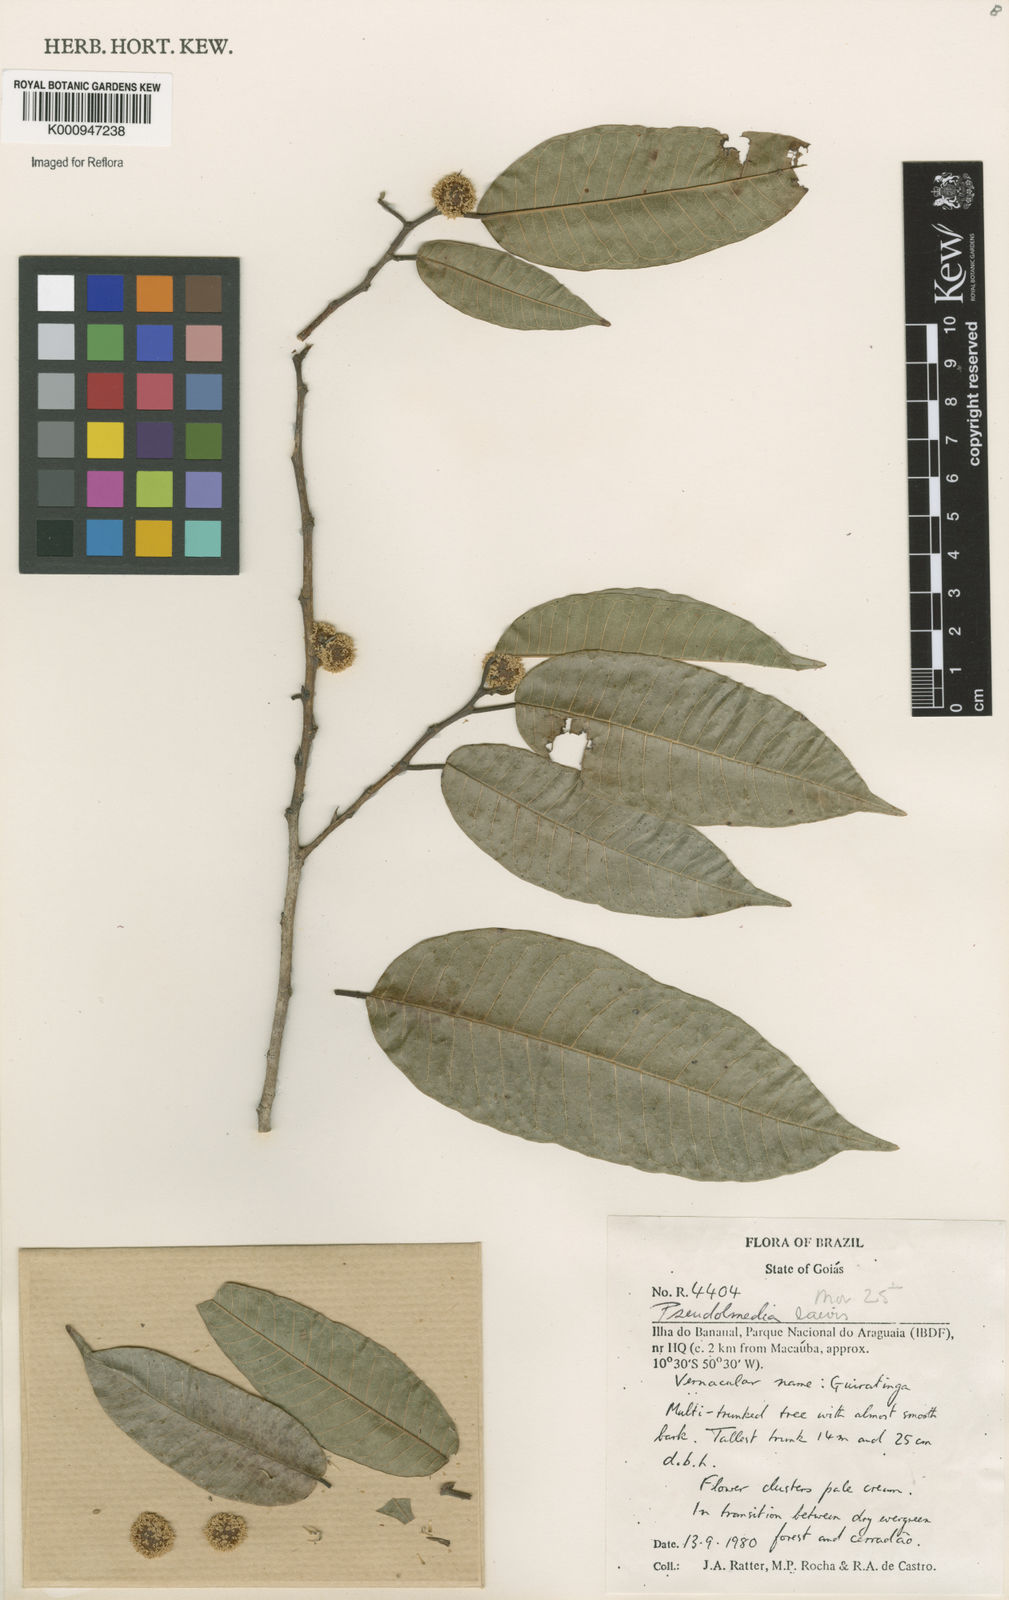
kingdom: Plantae
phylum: Tracheophyta
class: Magnoliopsida
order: Rosales
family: Moraceae
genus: Pseudolmedia
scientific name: Pseudolmedia laevis
